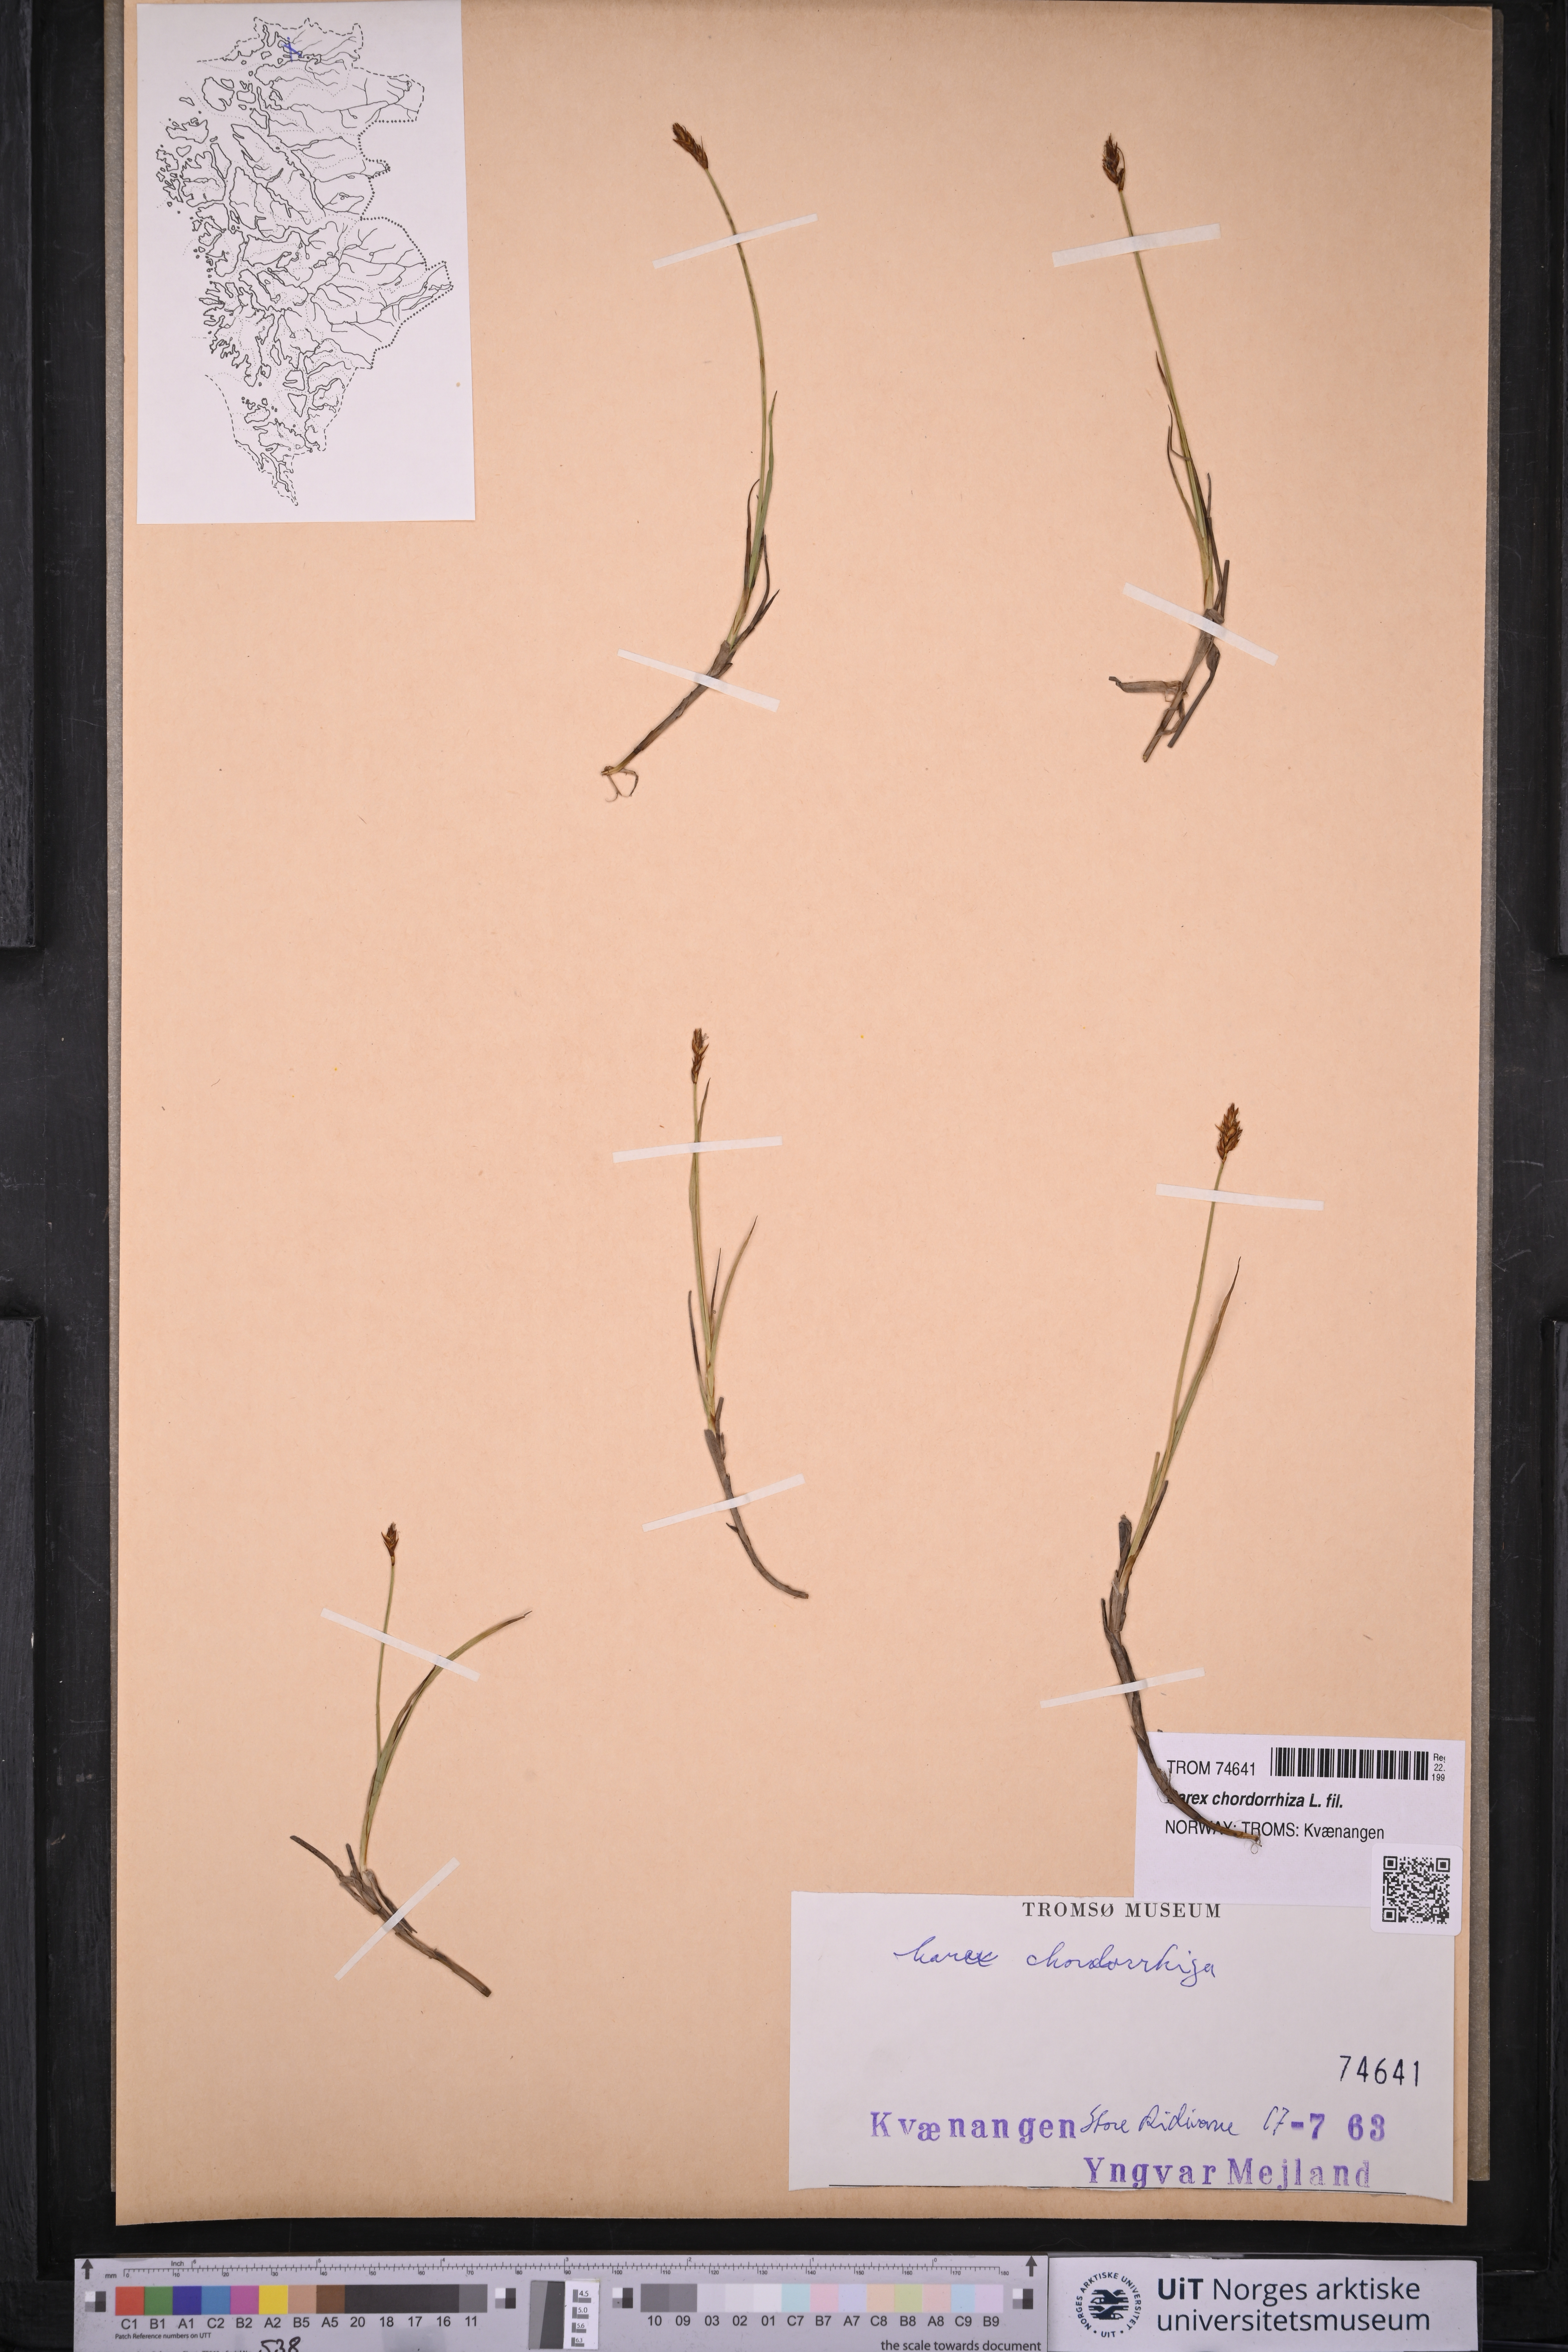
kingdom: Plantae
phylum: Tracheophyta
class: Liliopsida
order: Poales
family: Cyperaceae
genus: Carex
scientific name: Carex chordorrhiza
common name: String sedge
